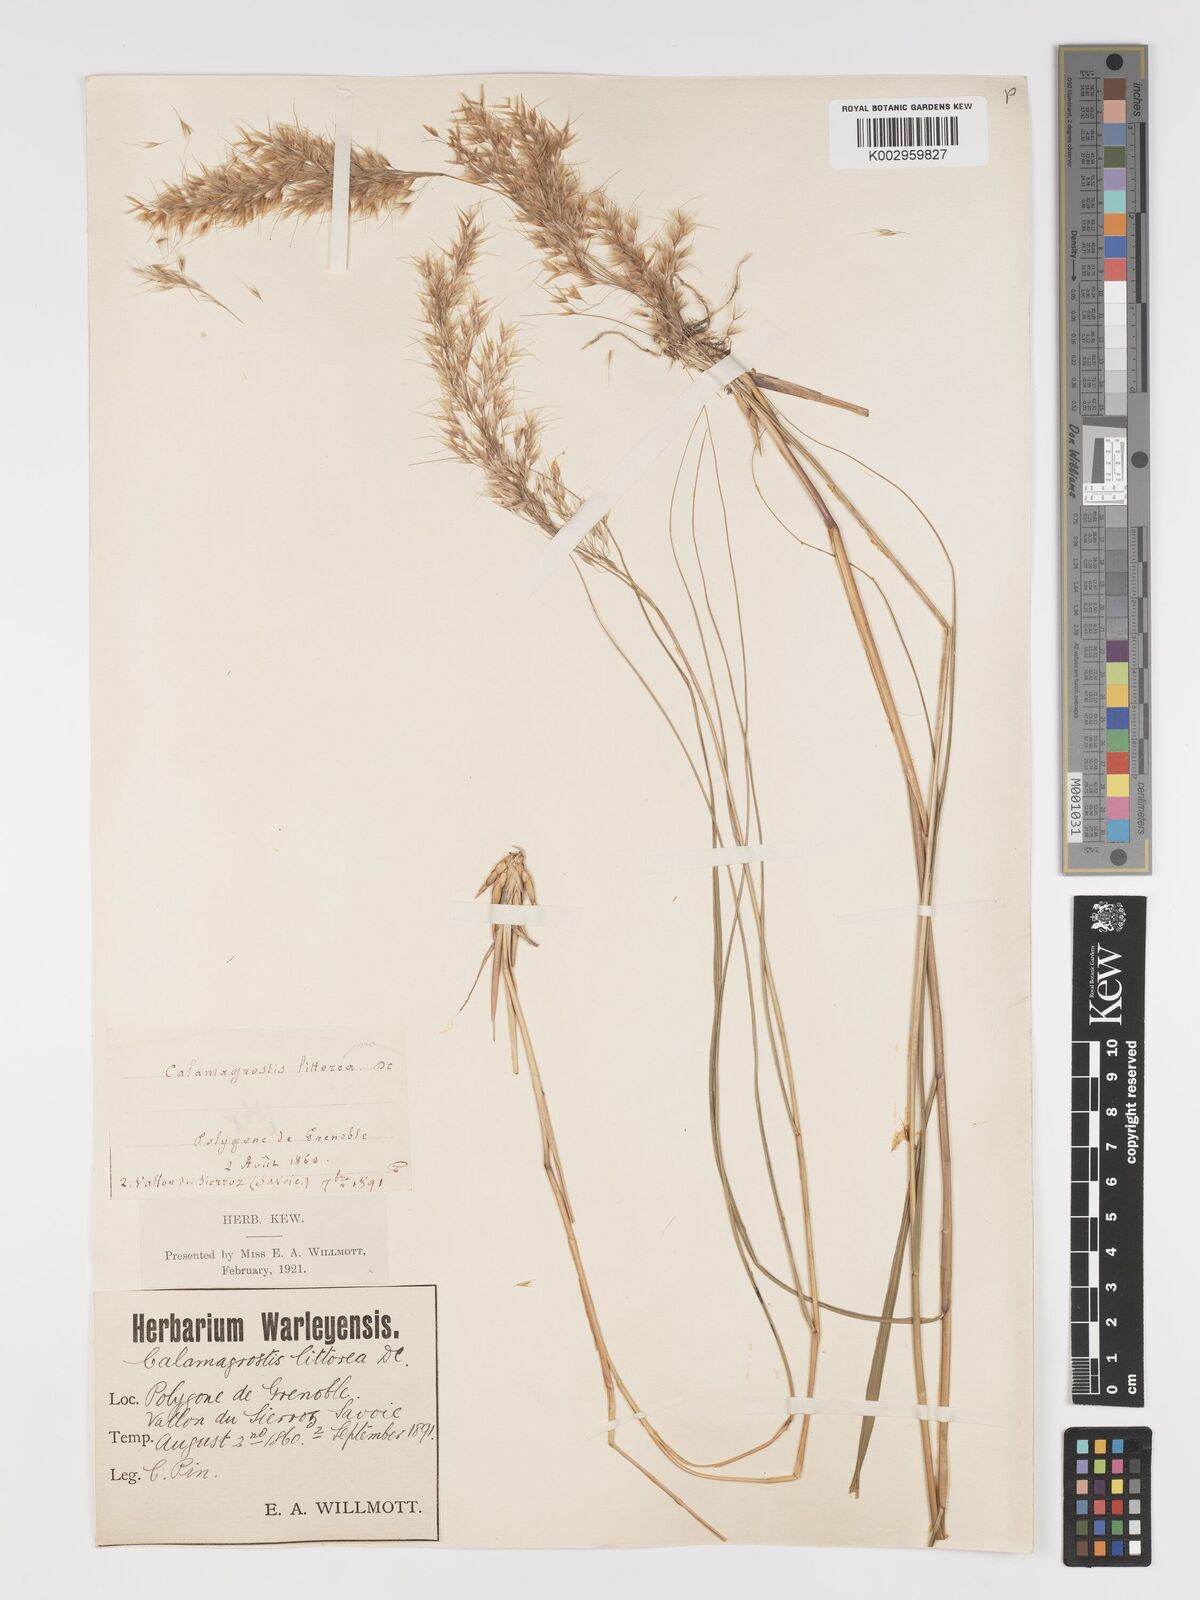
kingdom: Plantae
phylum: Tracheophyta
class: Liliopsida
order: Poales
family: Poaceae
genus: Achnatherum
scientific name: Achnatherum calamagrostis
